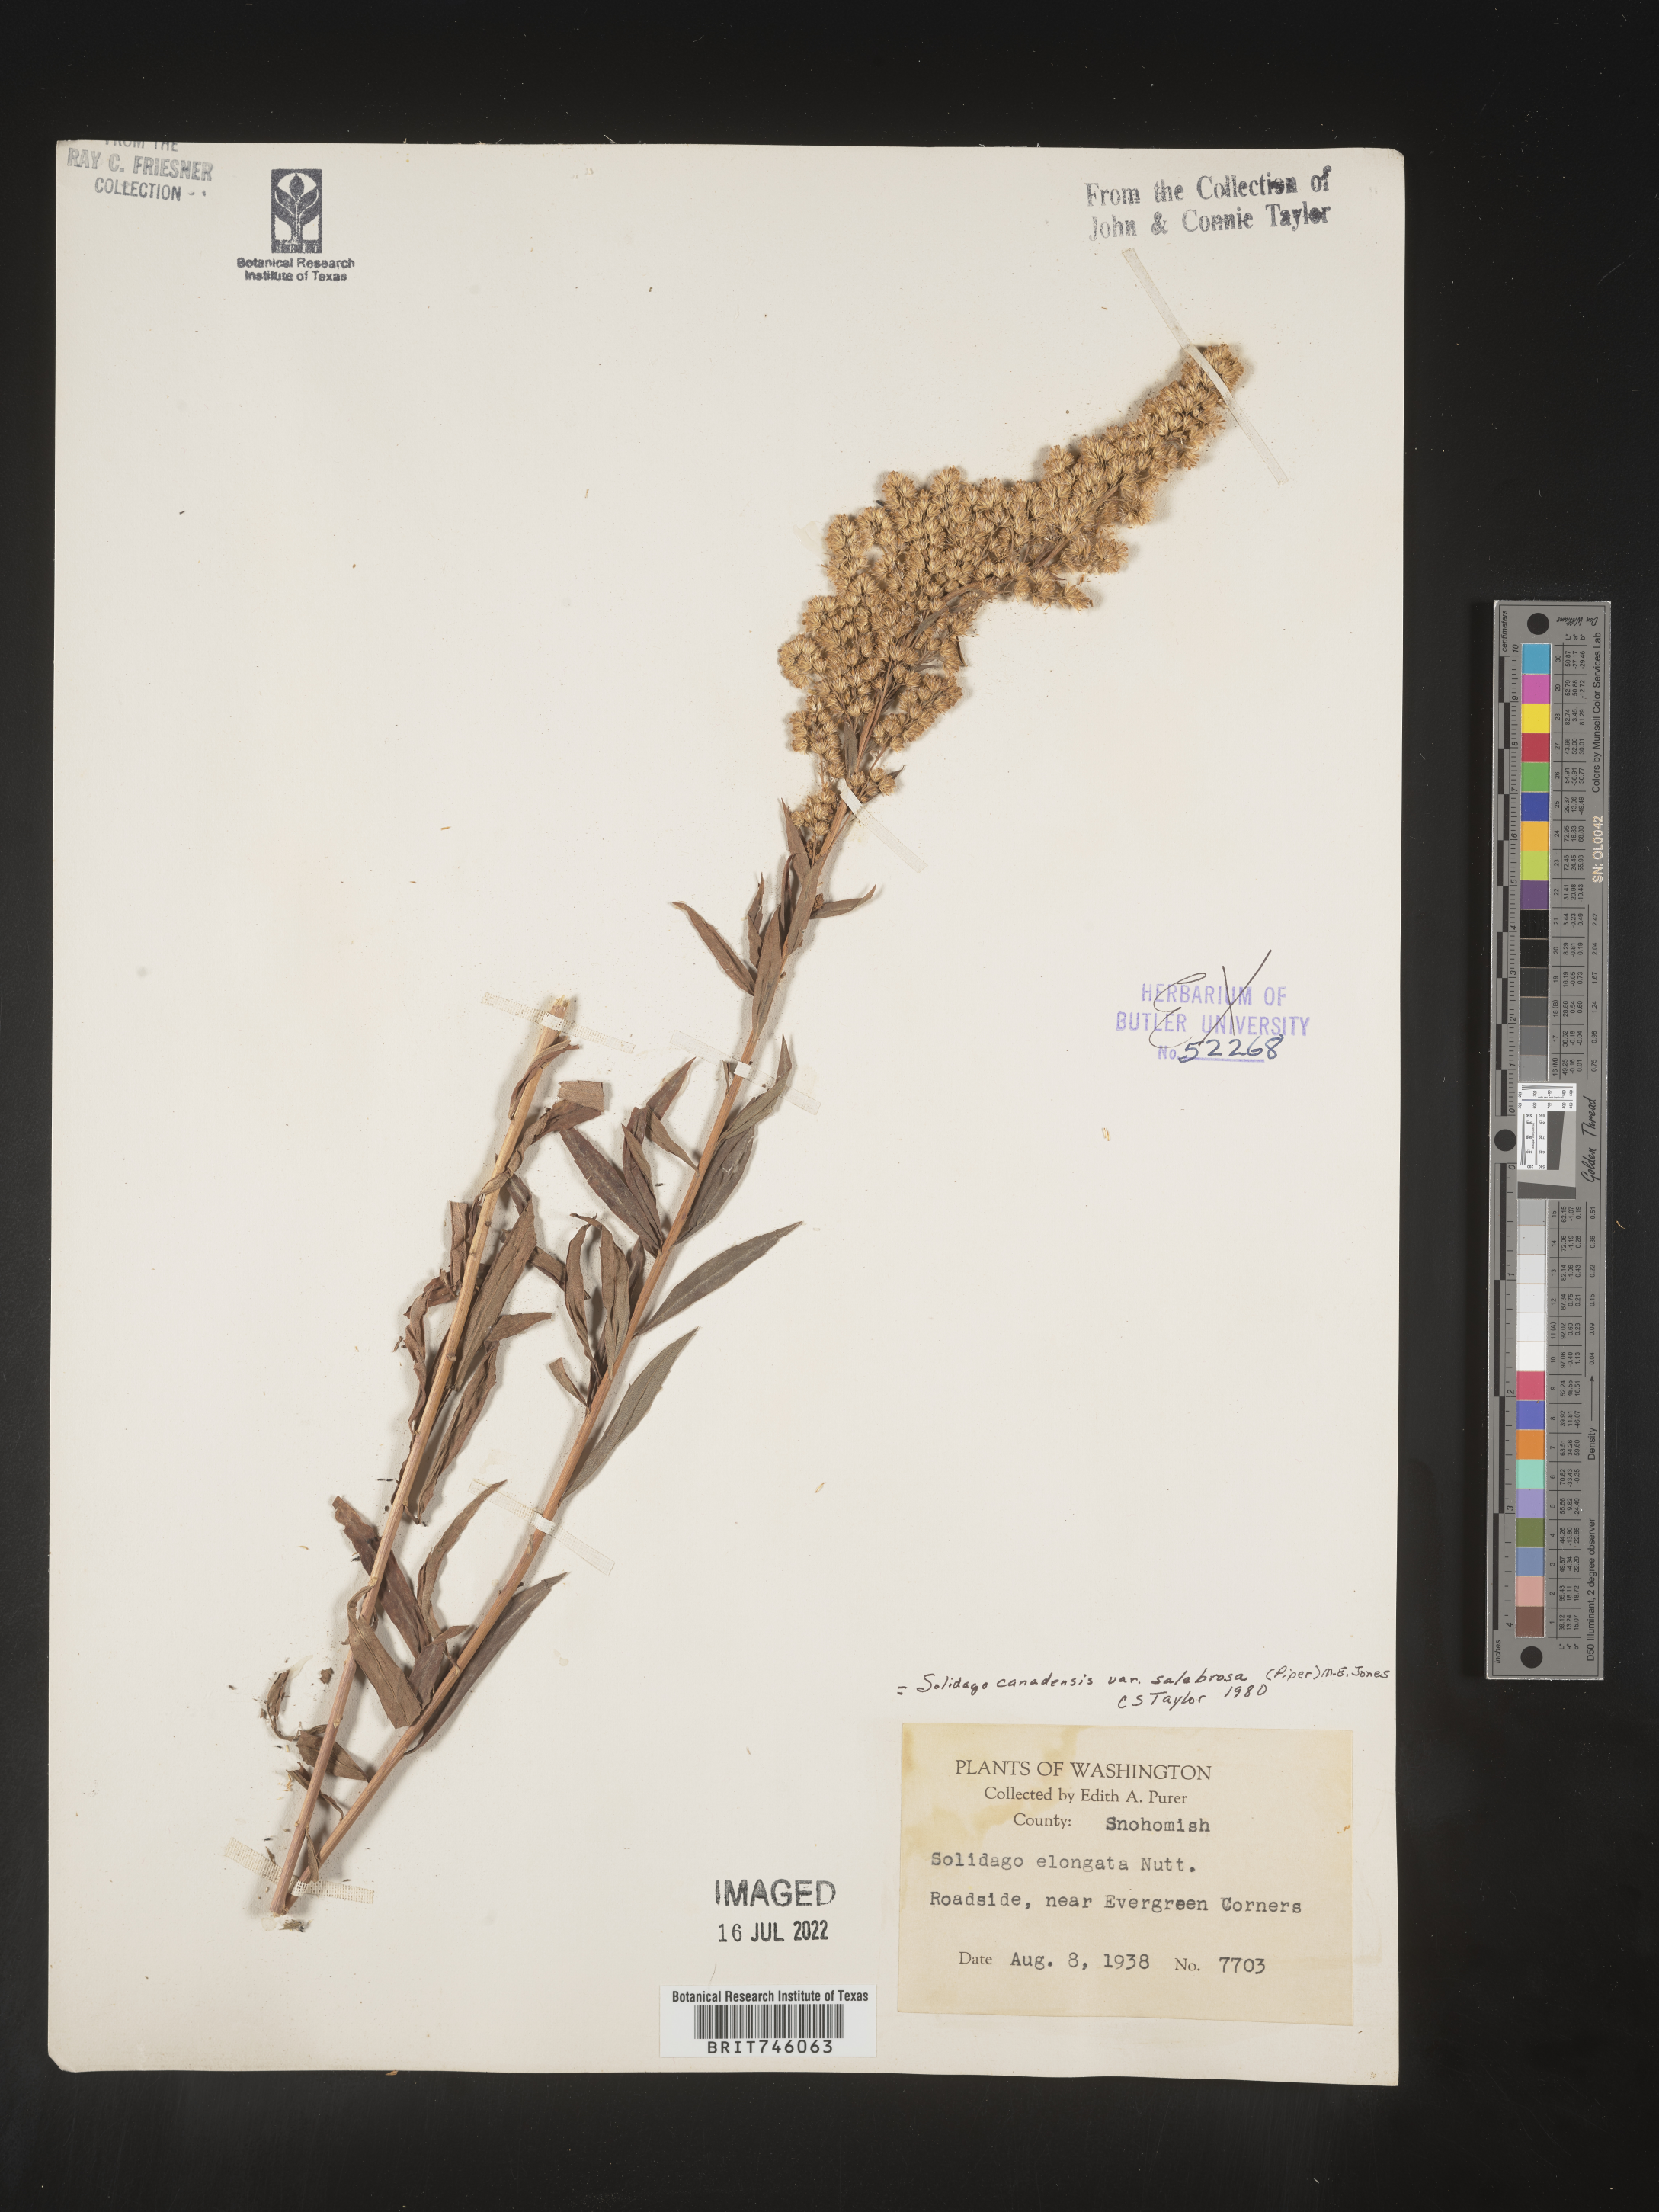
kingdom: Plantae
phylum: Tracheophyta
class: Magnoliopsida
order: Asterales
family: Asteraceae
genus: Solidago
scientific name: Solidago lepida
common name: Western canada goldenrod
